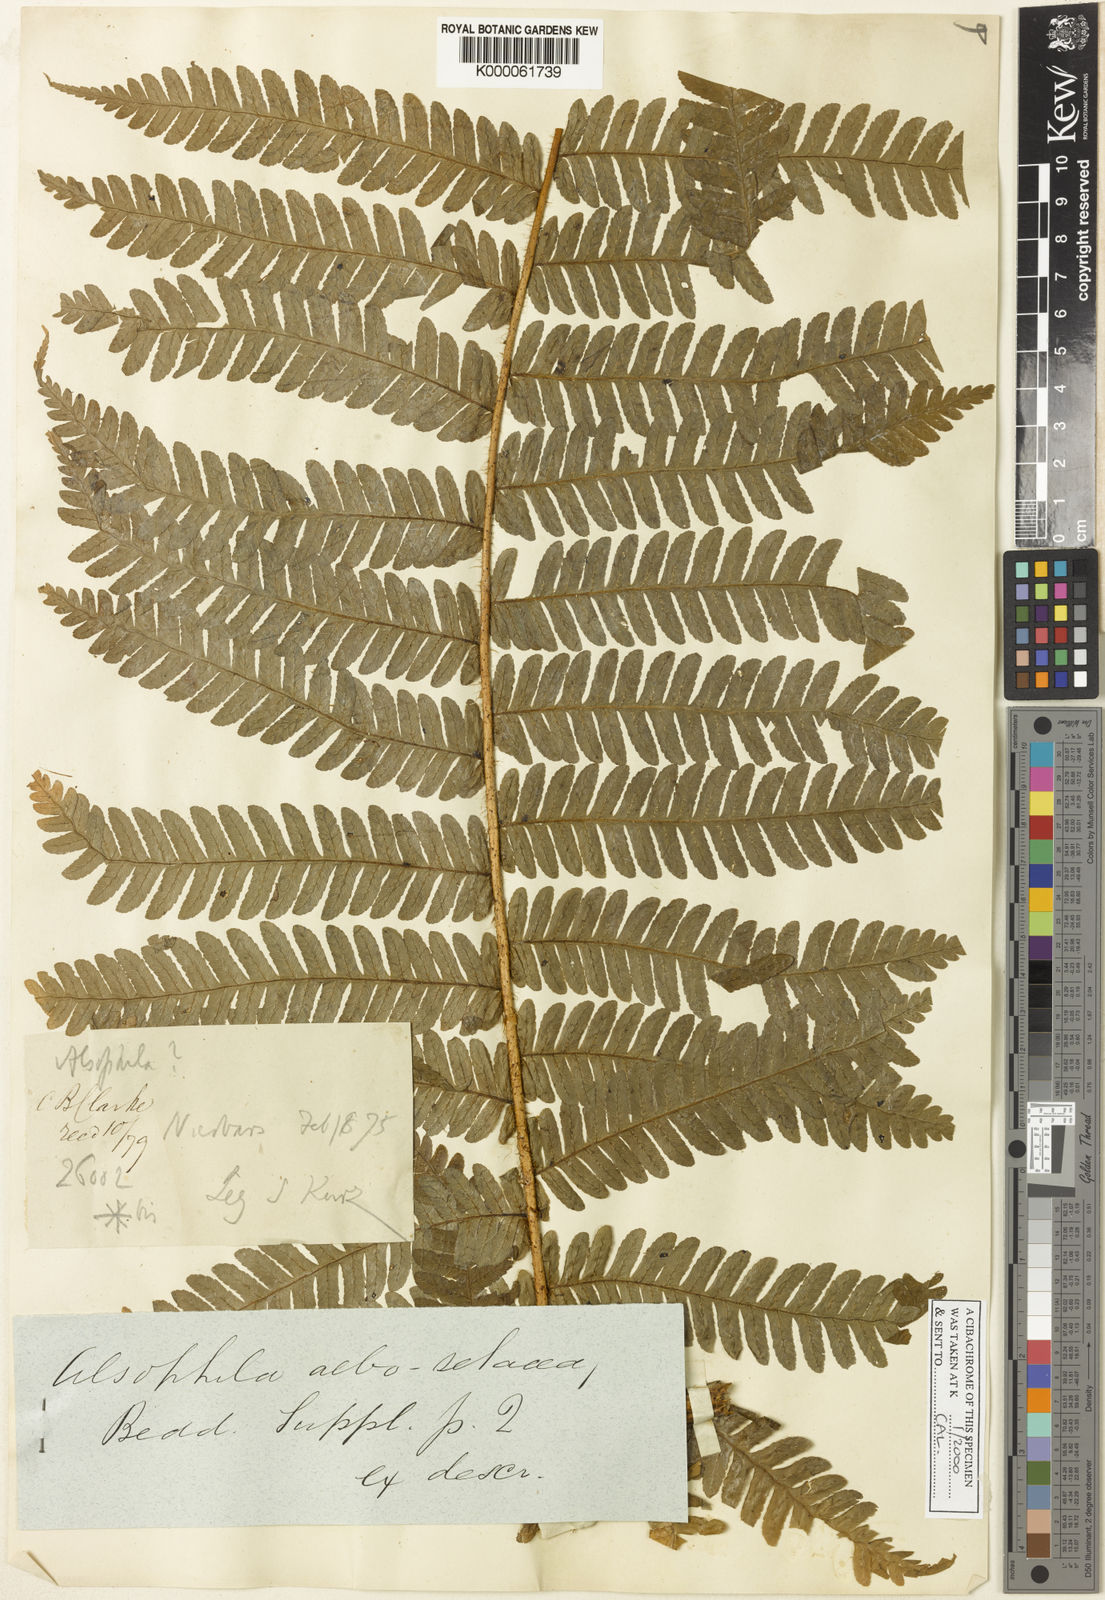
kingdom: Plantae
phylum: Tracheophyta
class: Polypodiopsida
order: Cyatheales
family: Cyatheaceae
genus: Sphaeropteris
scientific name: Sphaeropteris albosetacea
